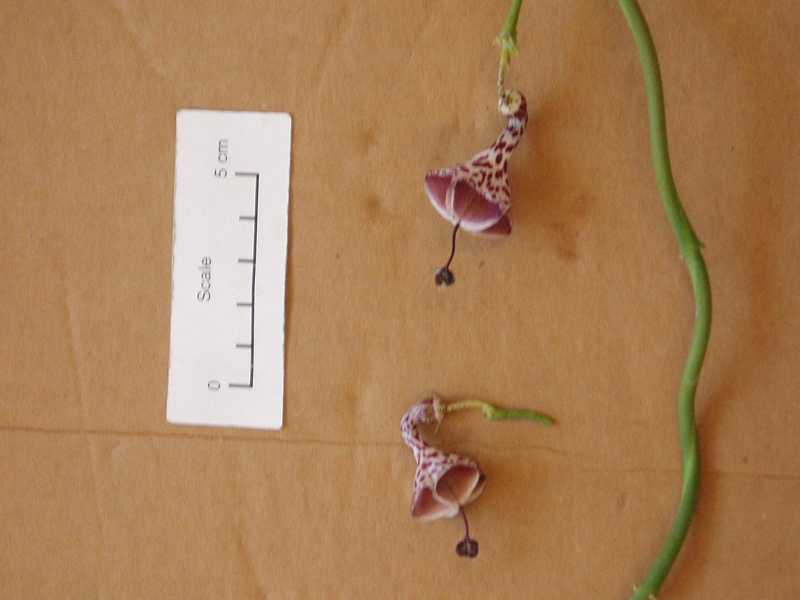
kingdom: Plantae
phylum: Tracheophyta
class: Magnoliopsida
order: Gentianales
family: Apocynaceae
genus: Ceropegia
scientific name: Ceropegia haygarthii
